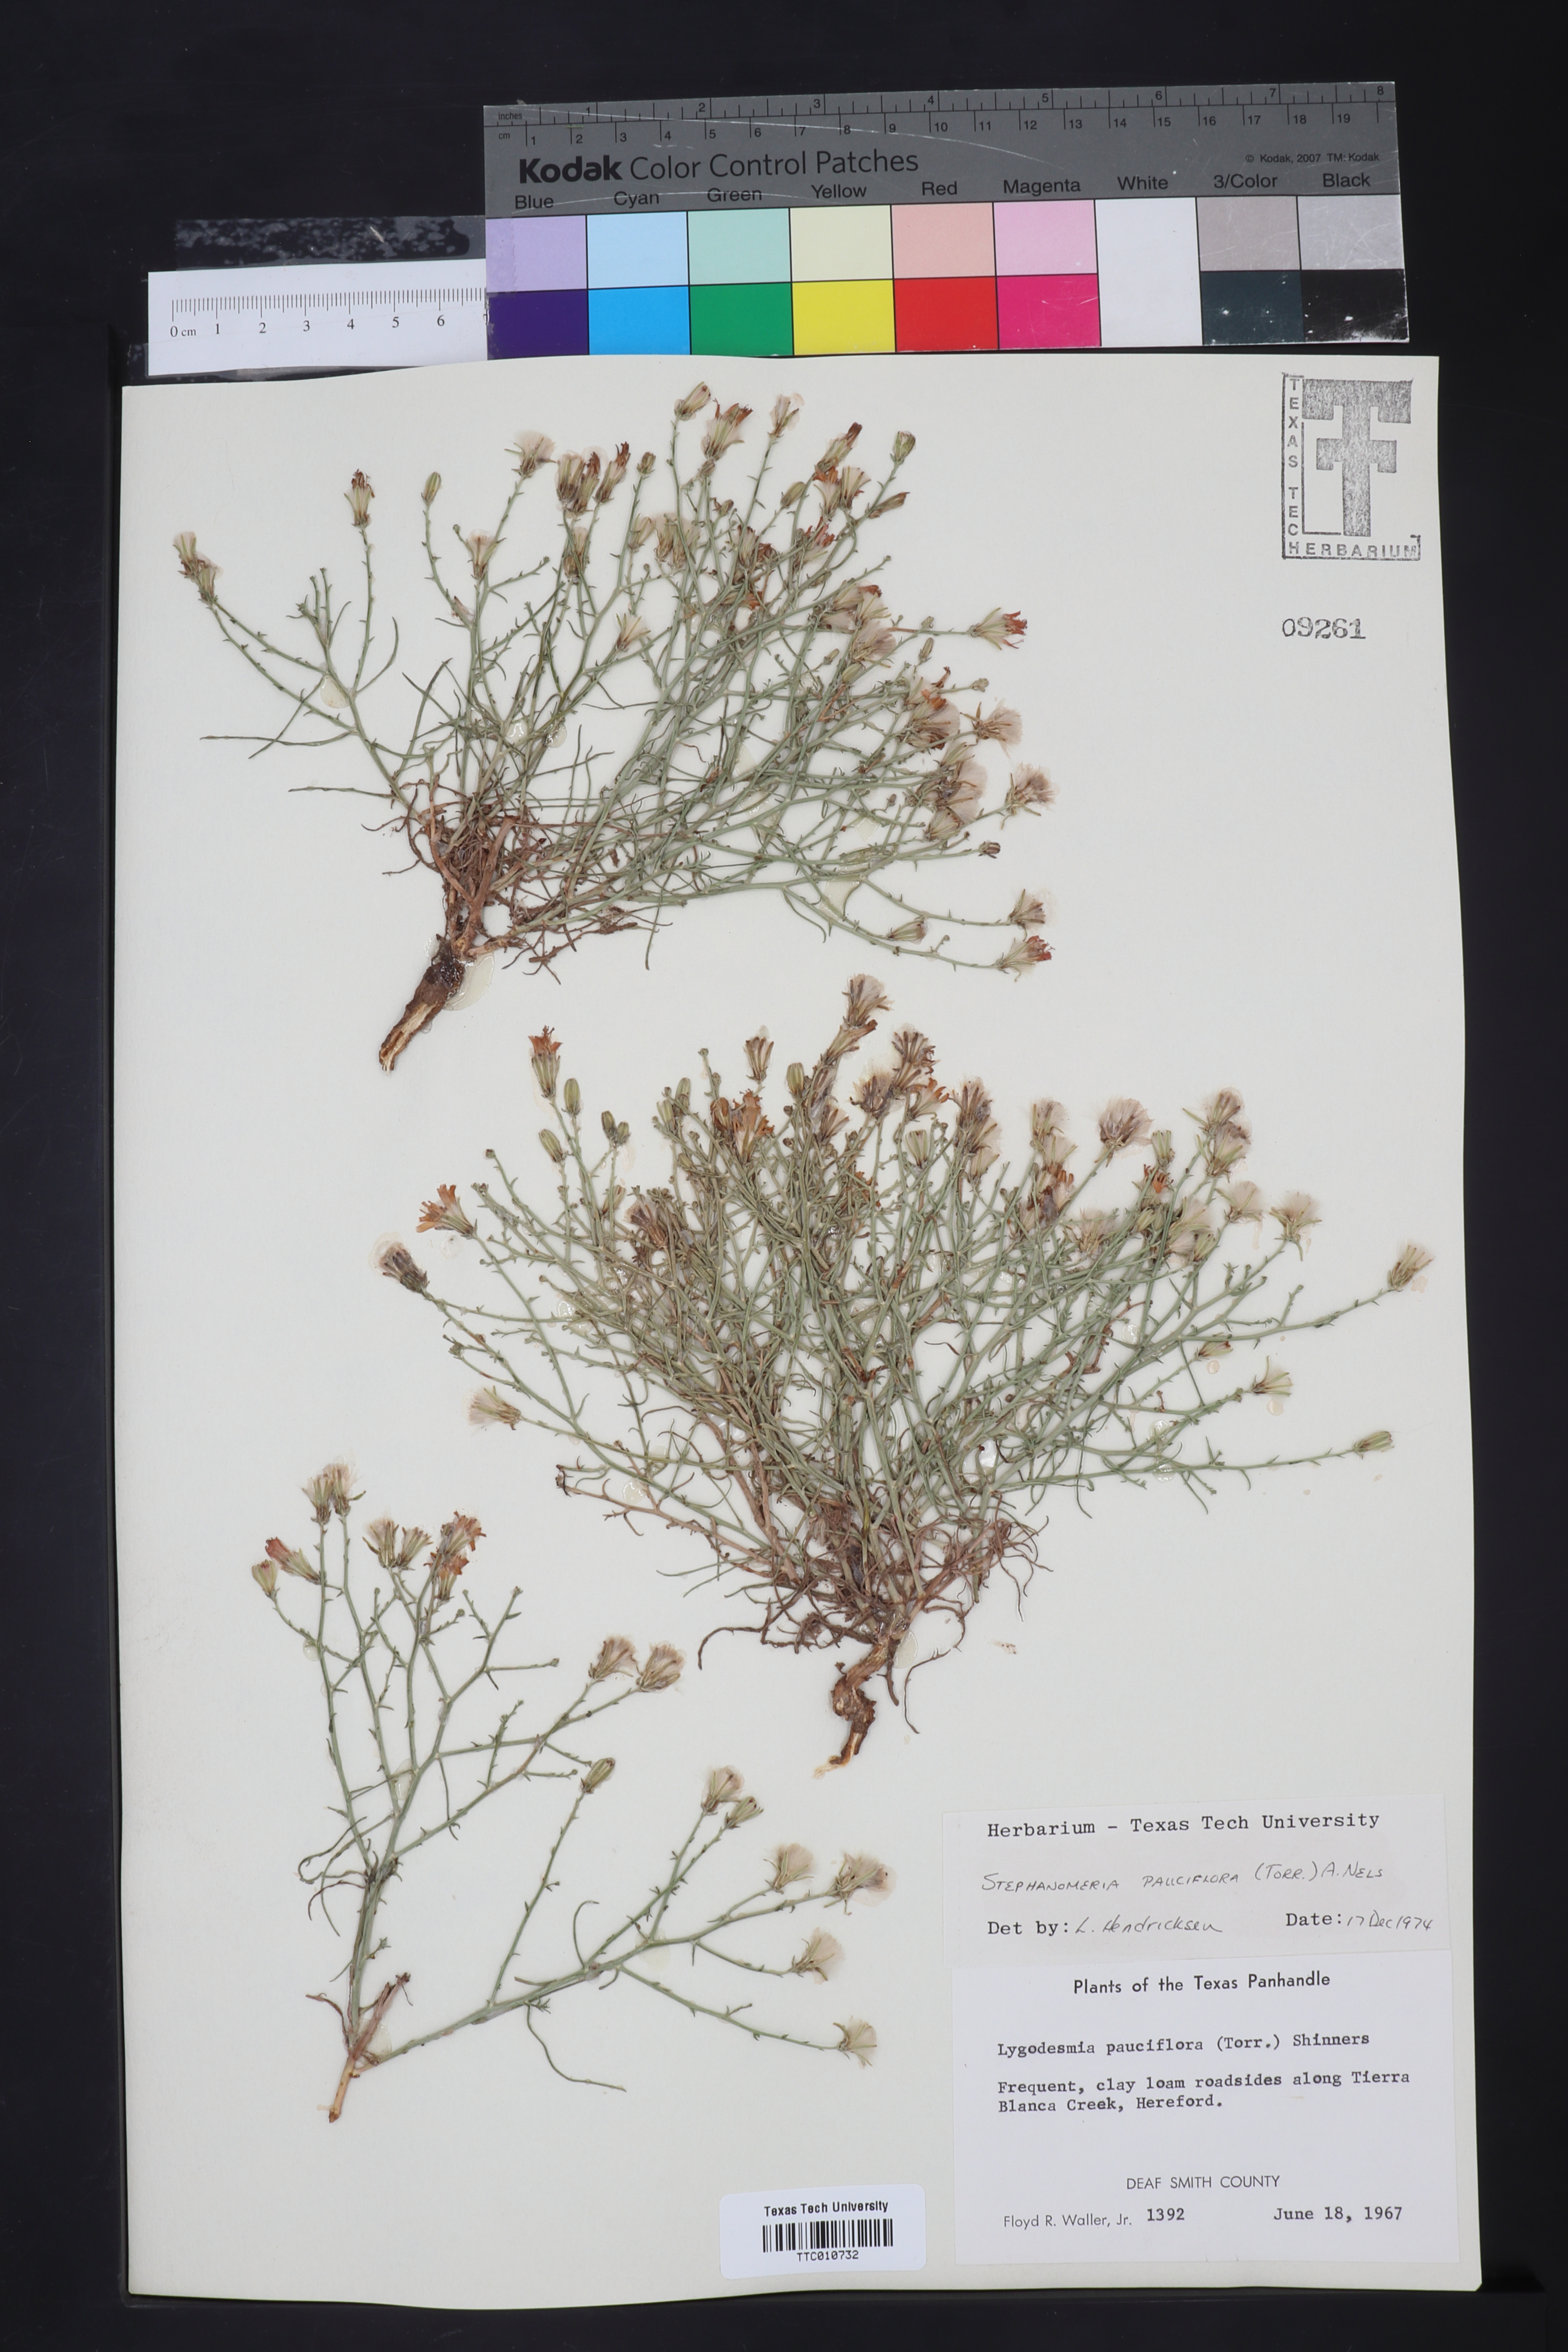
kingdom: Plantae
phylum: Tracheophyta
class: Magnoliopsida
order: Asterales
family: Asteraceae
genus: Stephanomeria
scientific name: Stephanomeria pauciflora
